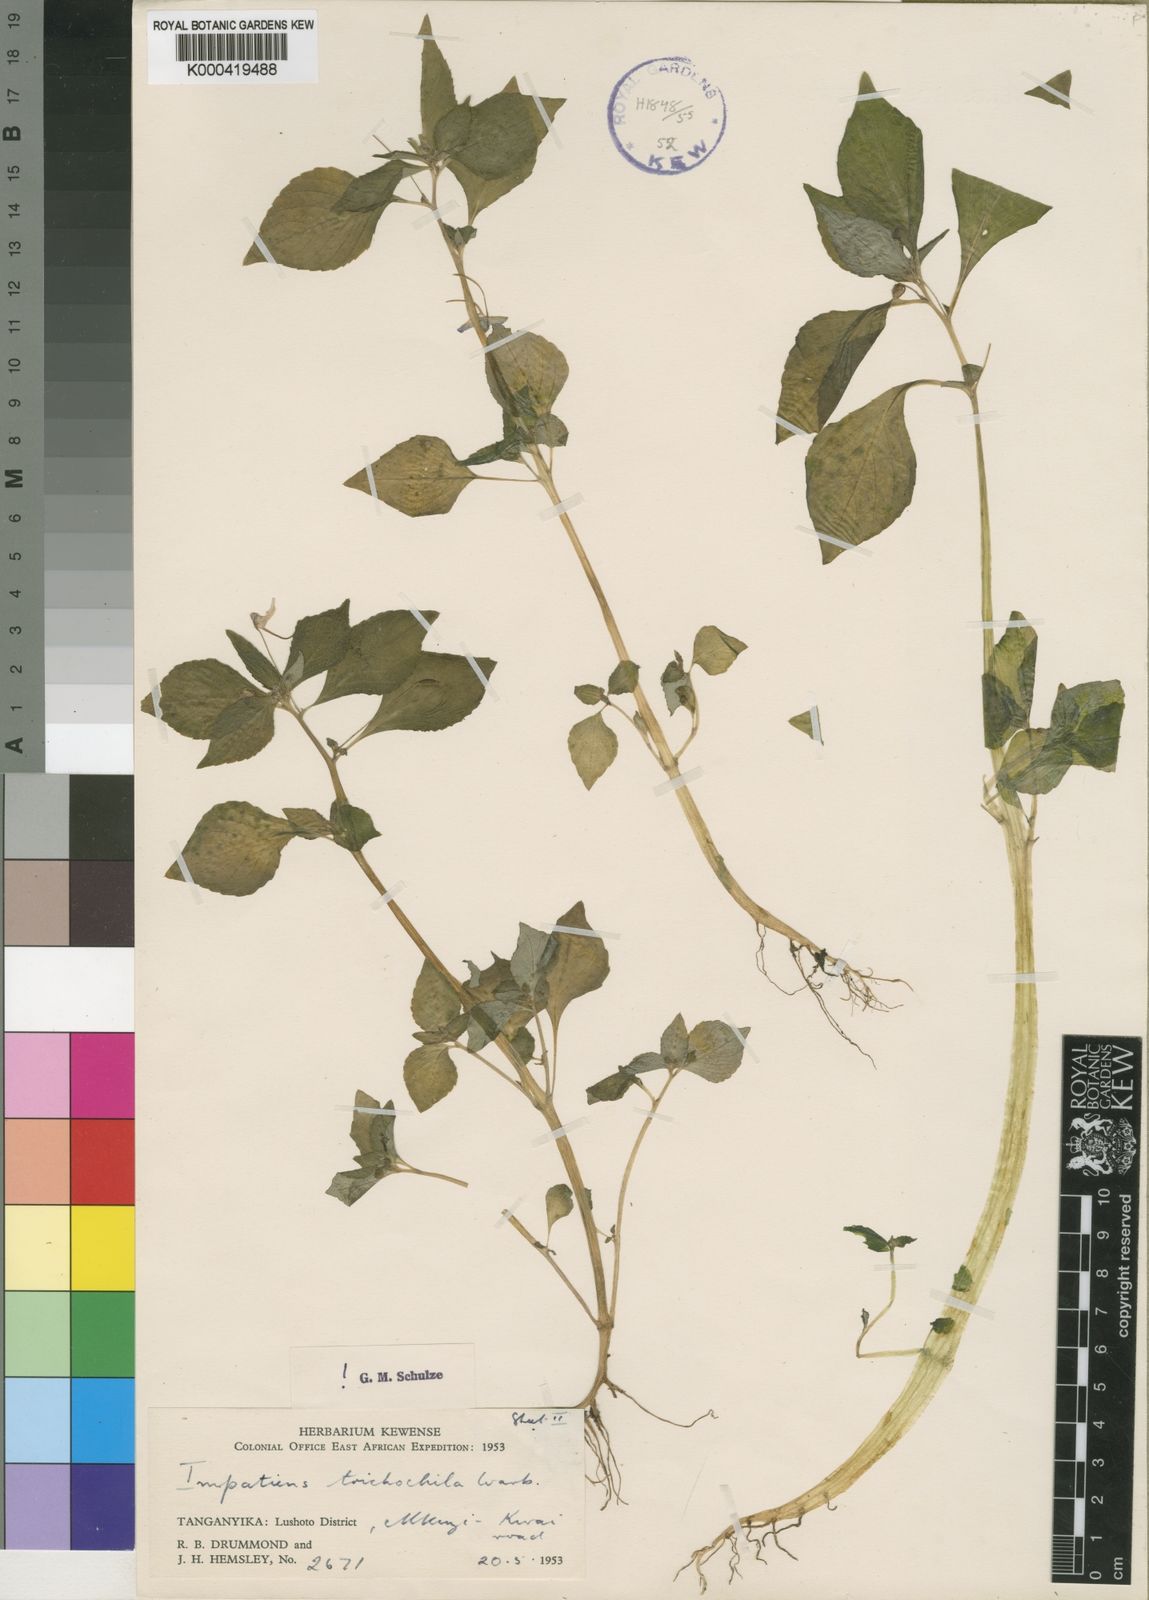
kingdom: Plantae
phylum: Tracheophyta
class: Magnoliopsida
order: Ericales
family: Balsaminaceae
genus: Impatiens
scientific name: Impatiens mazumbaiensis
